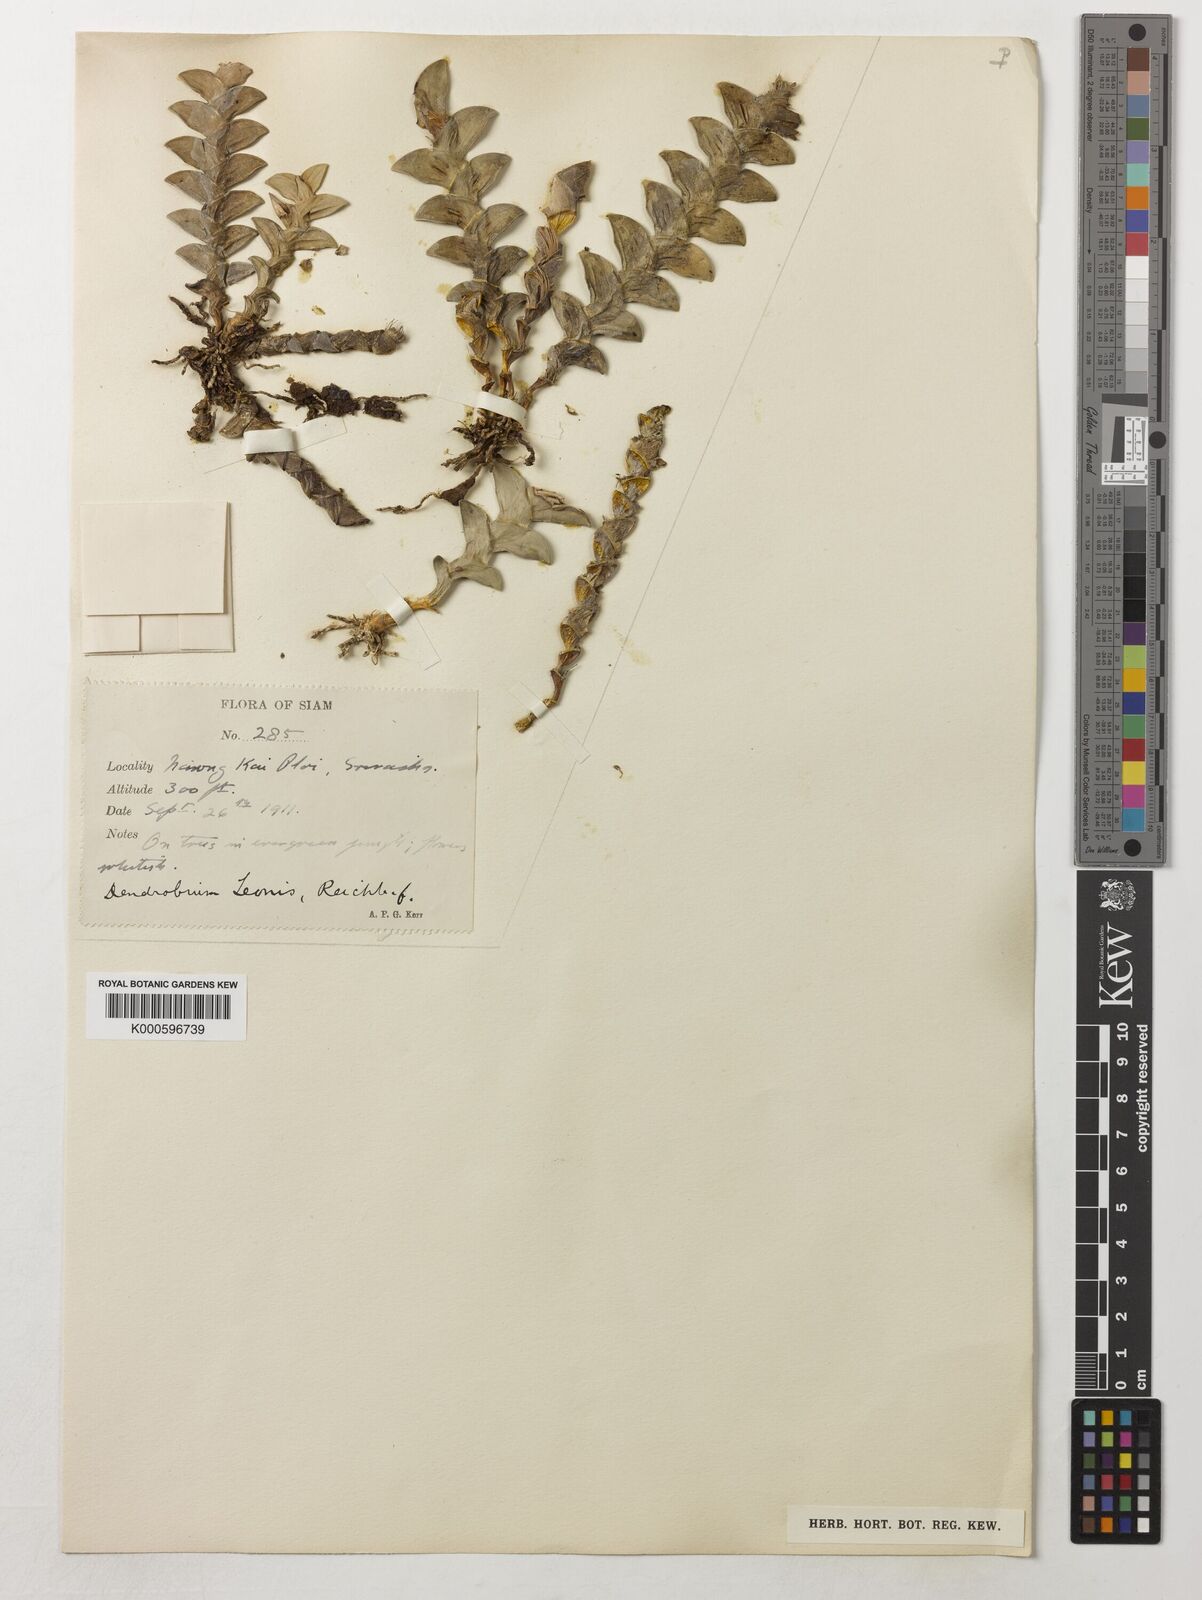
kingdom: Plantae
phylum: Tracheophyta
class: Liliopsida
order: Asparagales
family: Orchidaceae
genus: Dendrobium
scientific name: Dendrobium leonis
